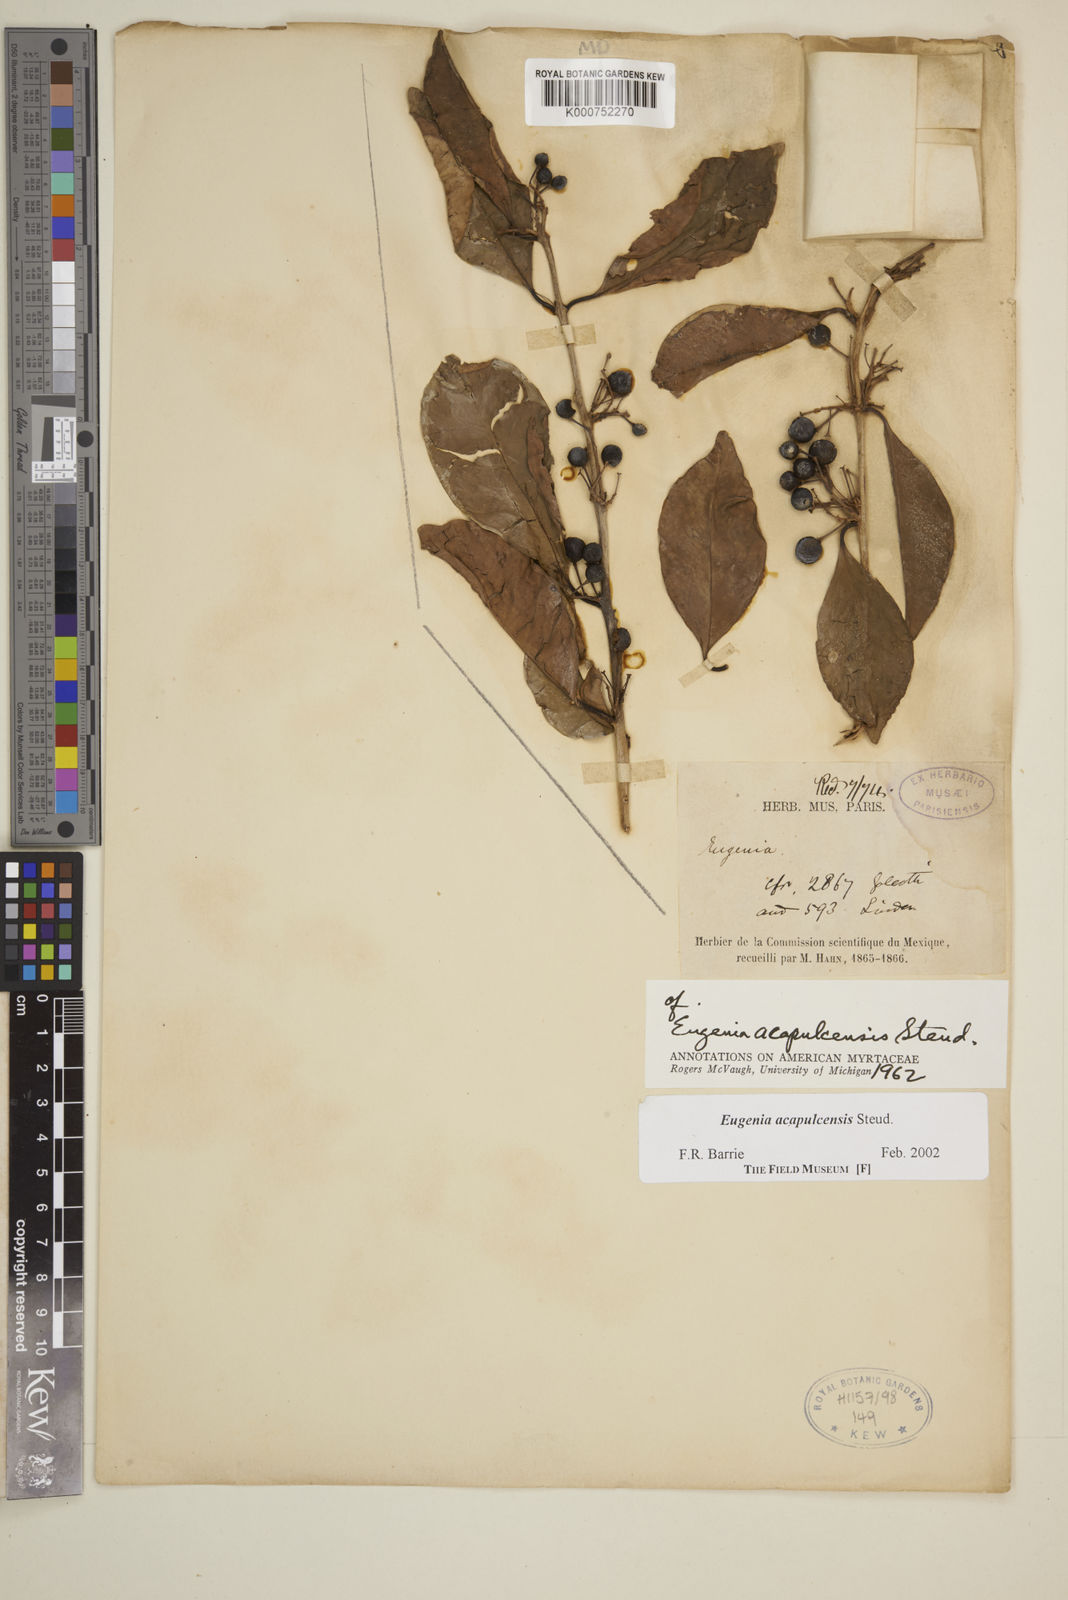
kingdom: Plantae
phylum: Tracheophyta
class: Magnoliopsida
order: Myrtales
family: Myrtaceae
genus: Eugenia
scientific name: Eugenia acapulcensis
